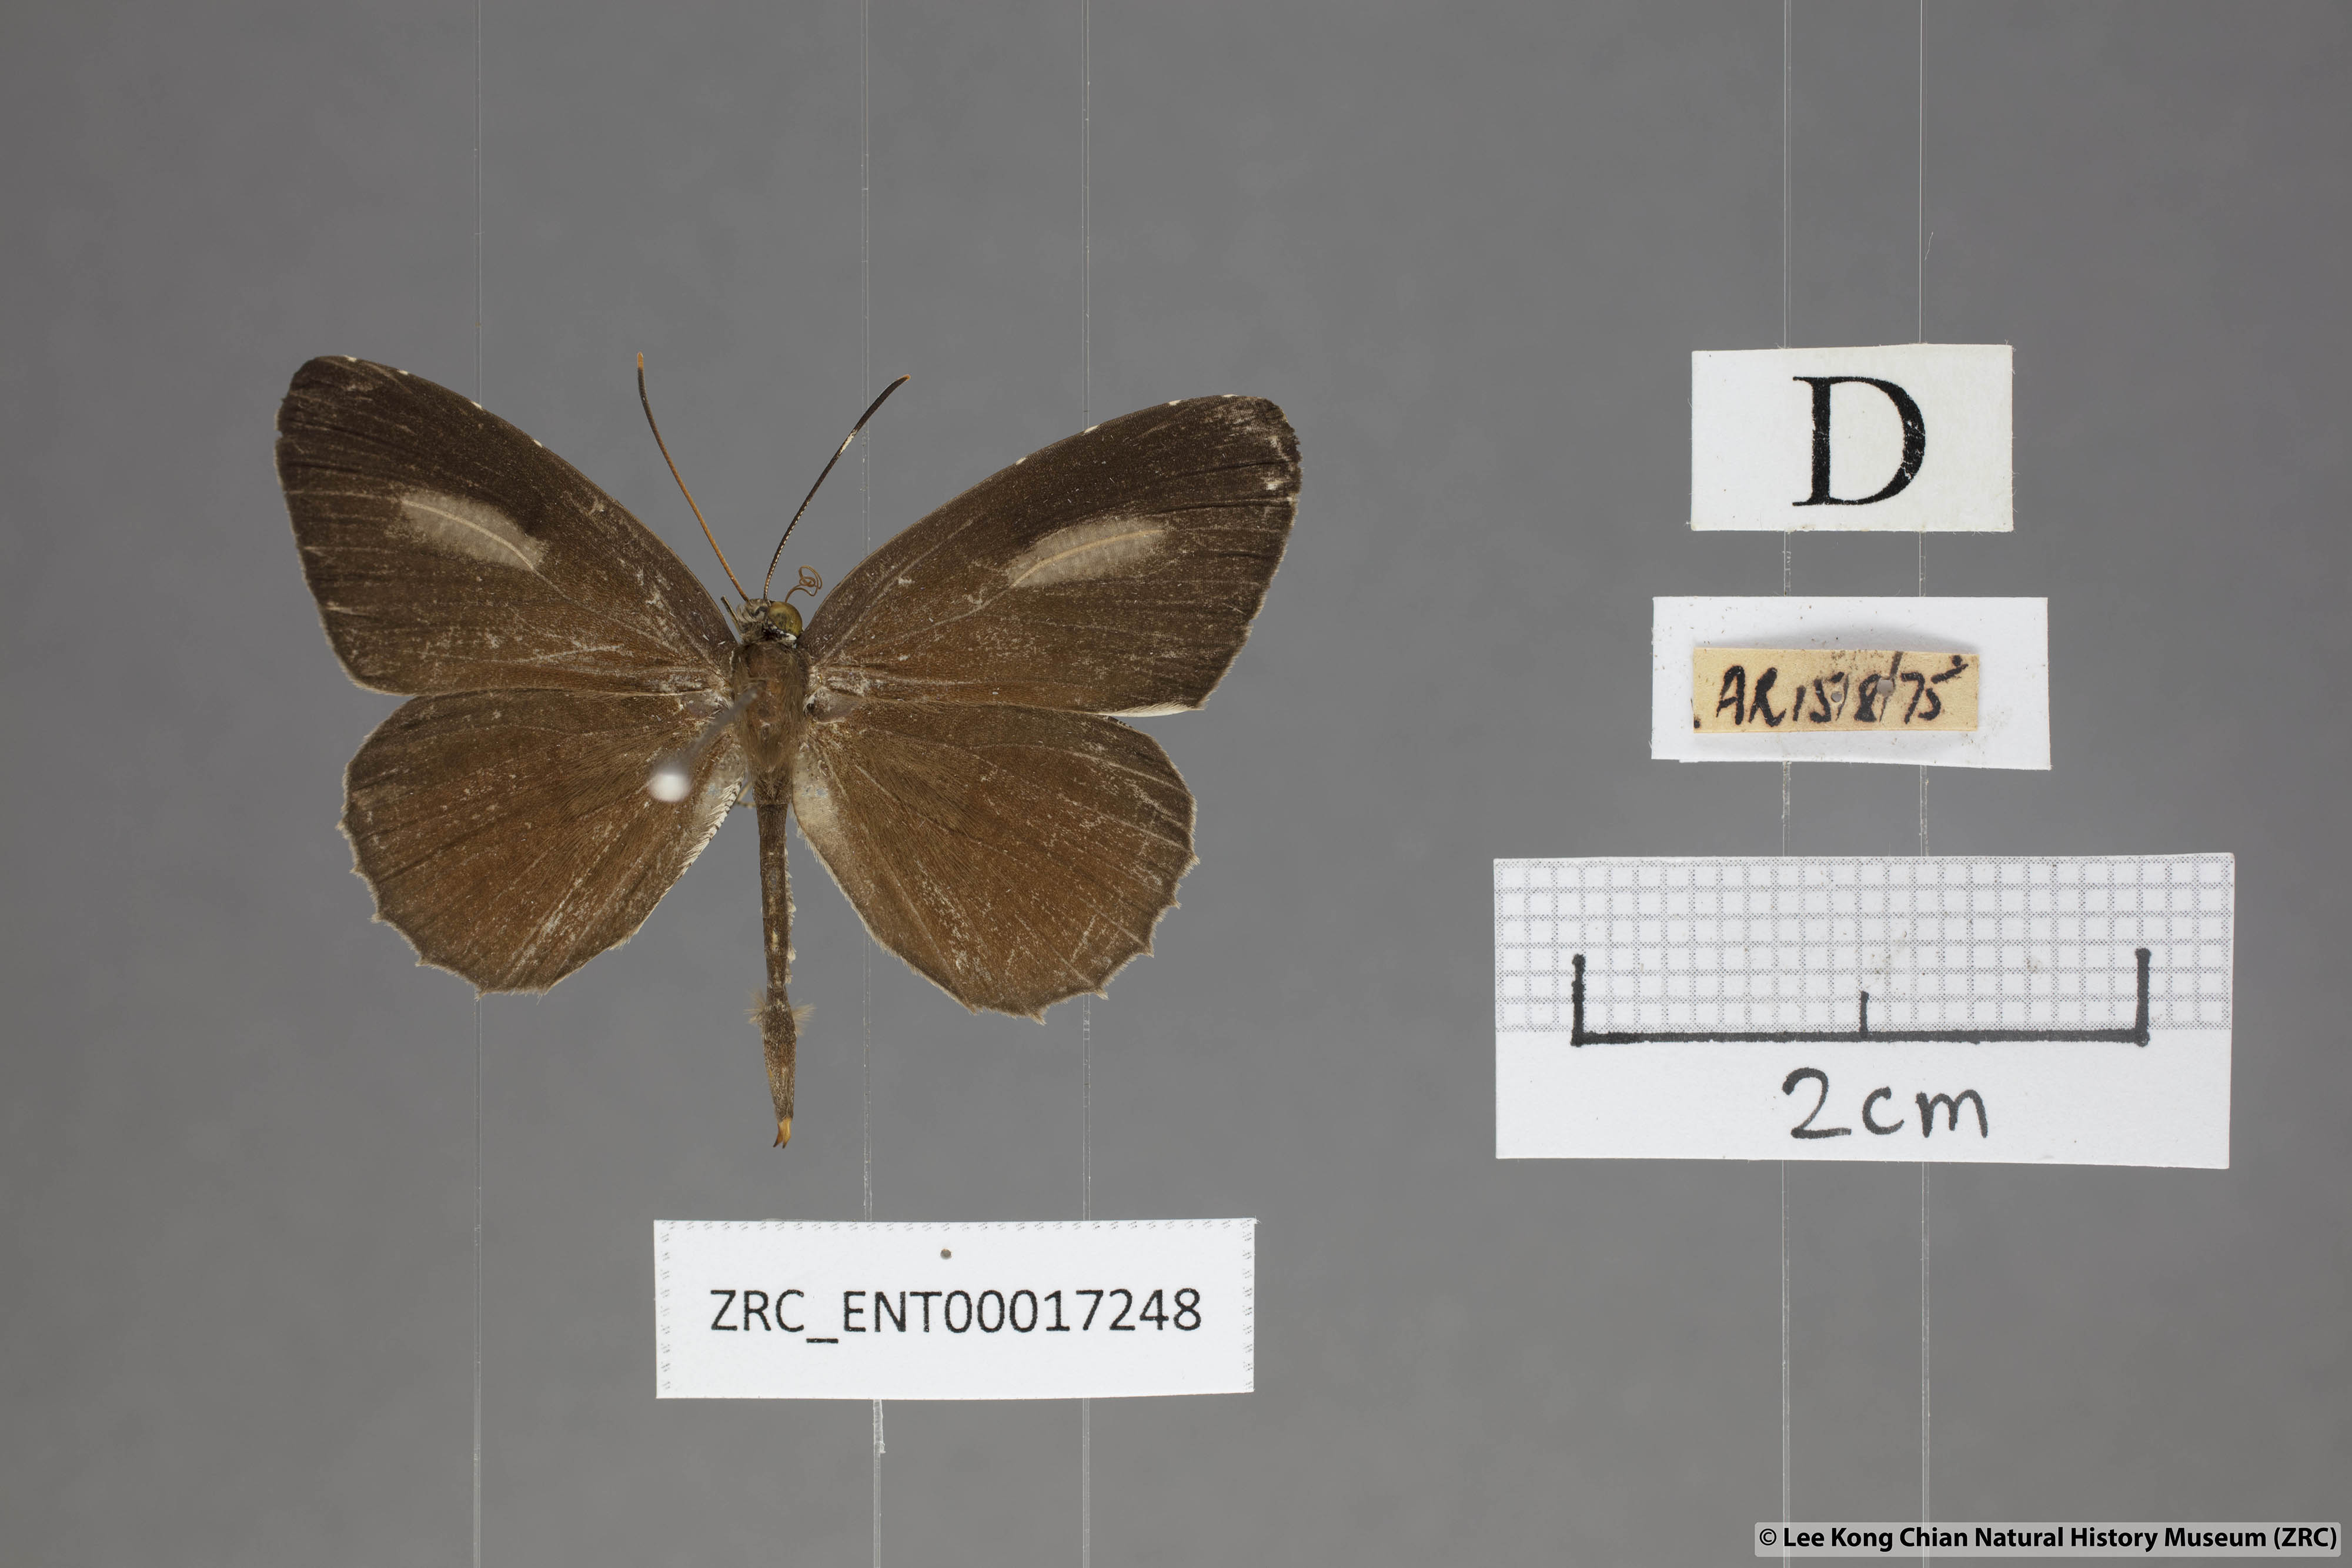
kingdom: Animalia
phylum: Arthropoda
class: Insecta
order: Lepidoptera
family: Lycaenidae
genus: Allotinus
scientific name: Allotinus horsfieldi
